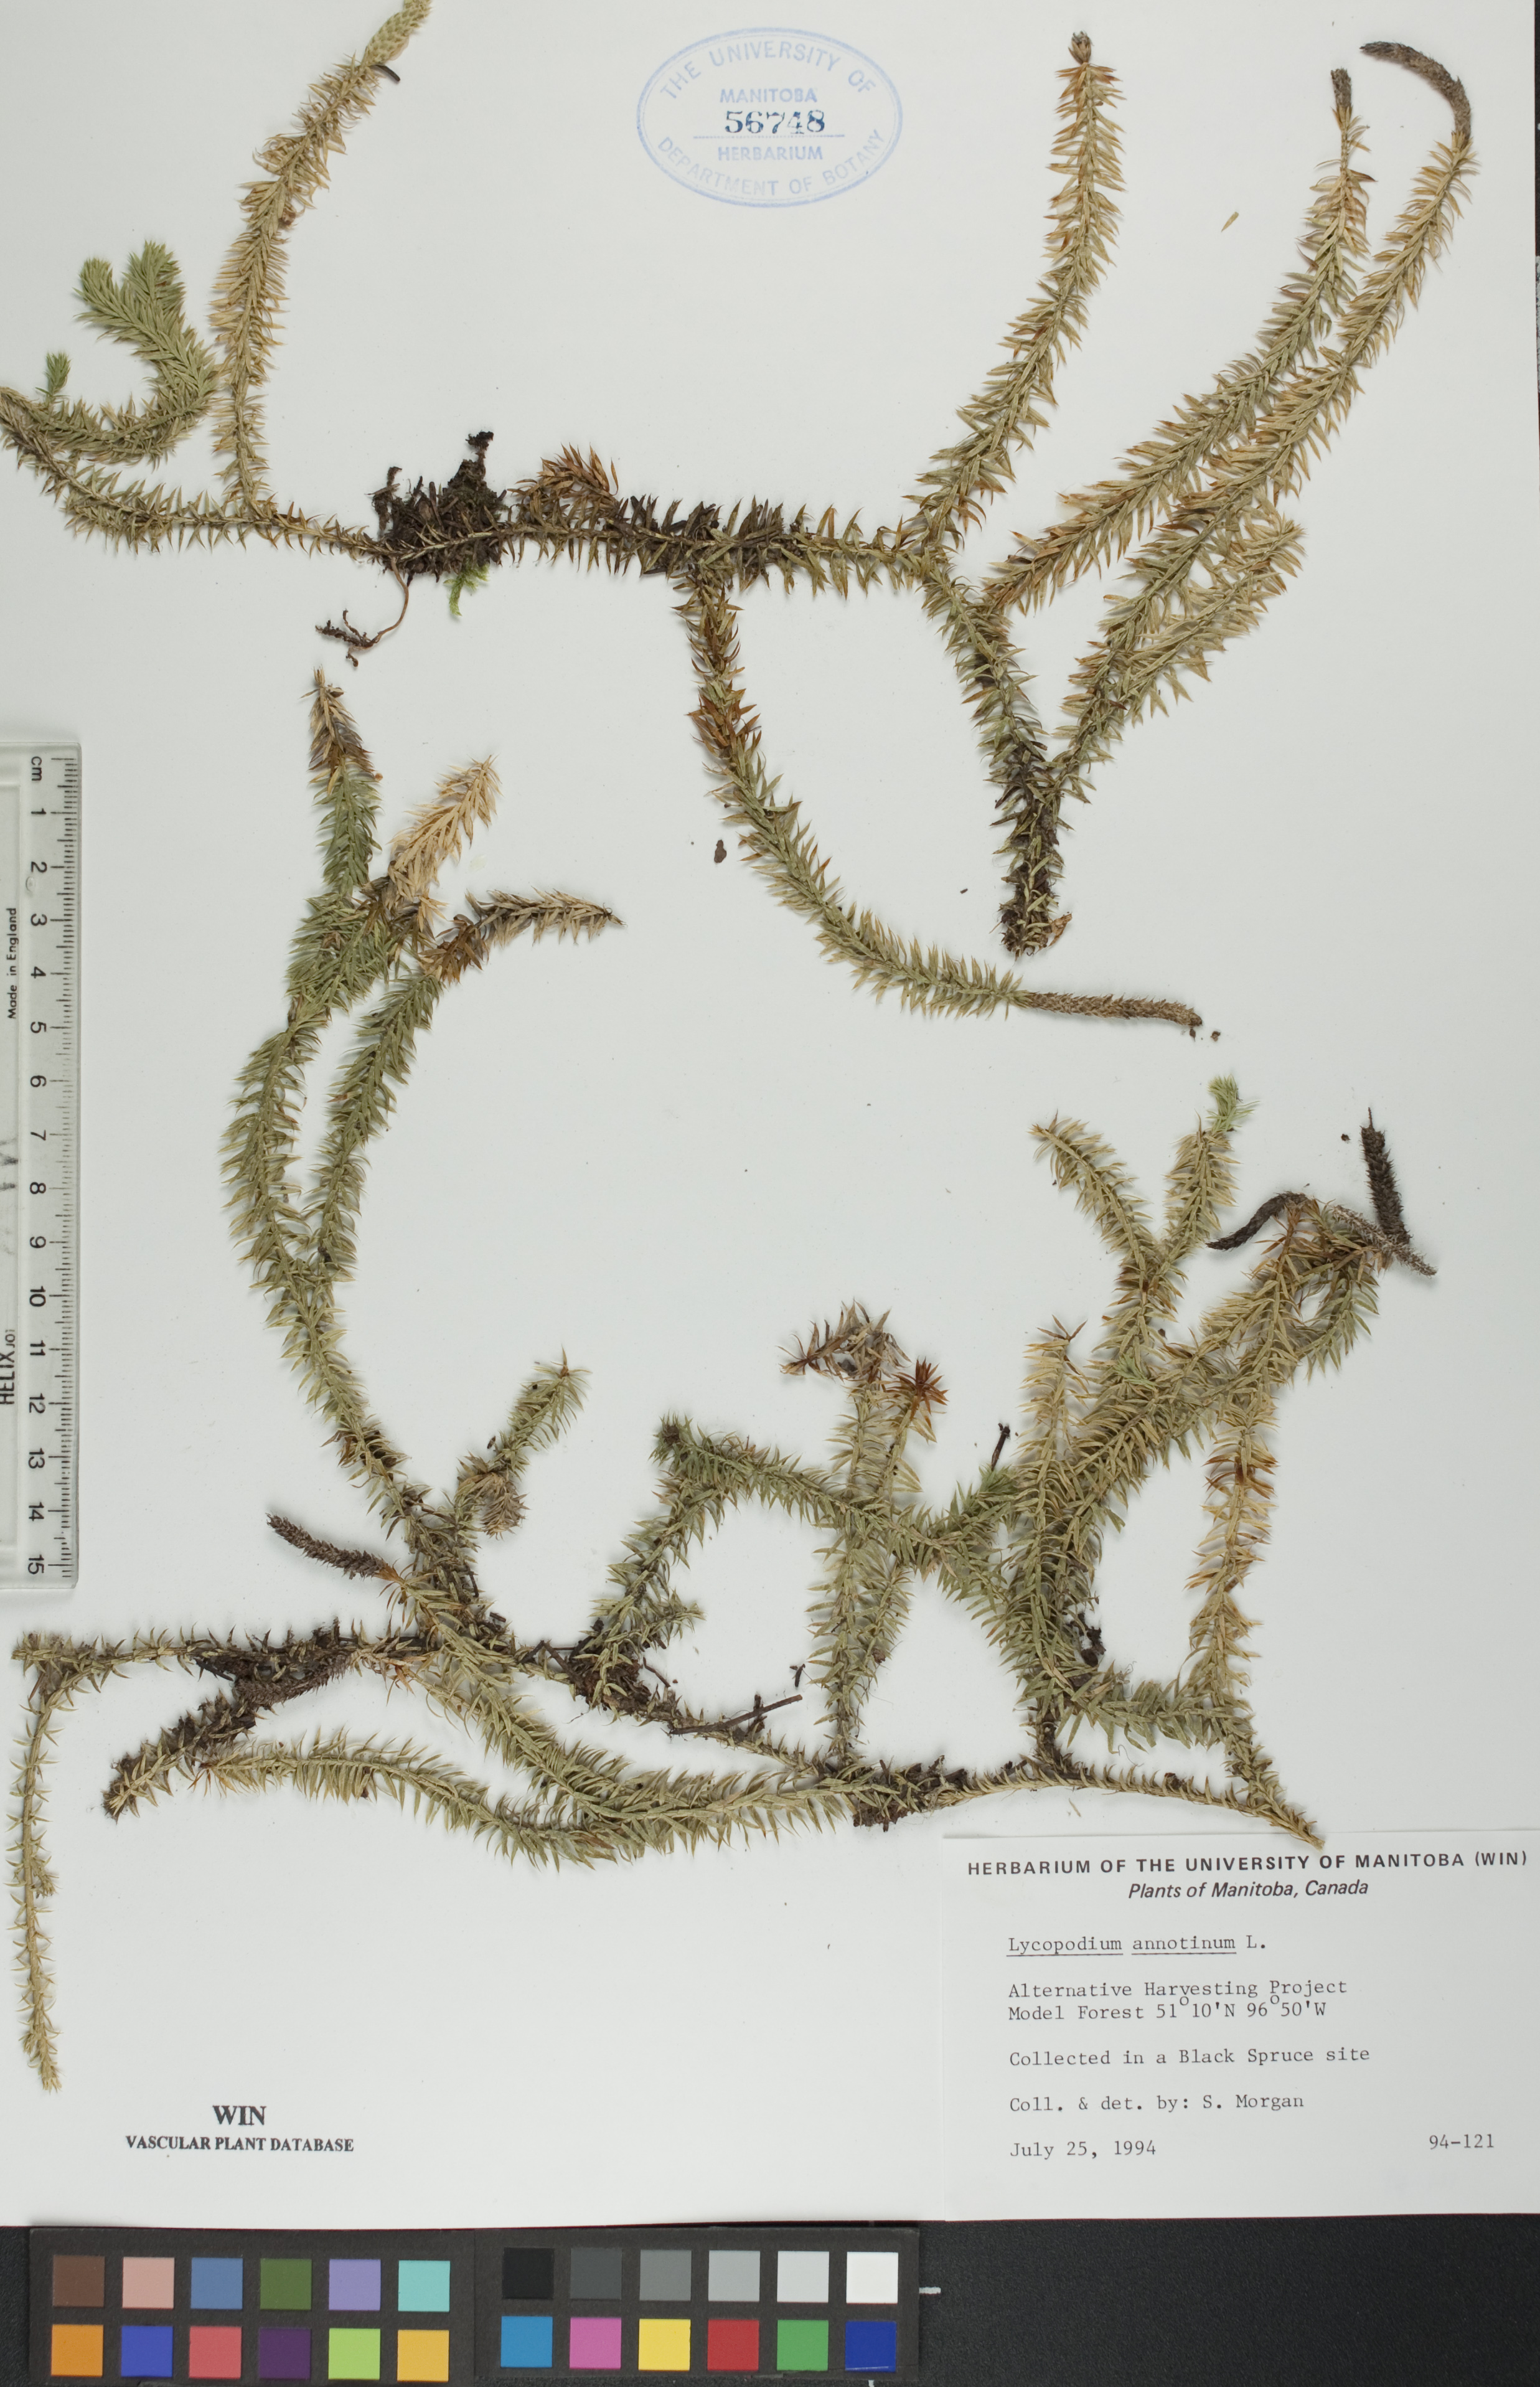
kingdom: Plantae
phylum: Tracheophyta
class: Lycopodiopsida
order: Lycopodiales
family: Lycopodiaceae
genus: Spinulum
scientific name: Spinulum annotinum
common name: Interrupted club-moss
